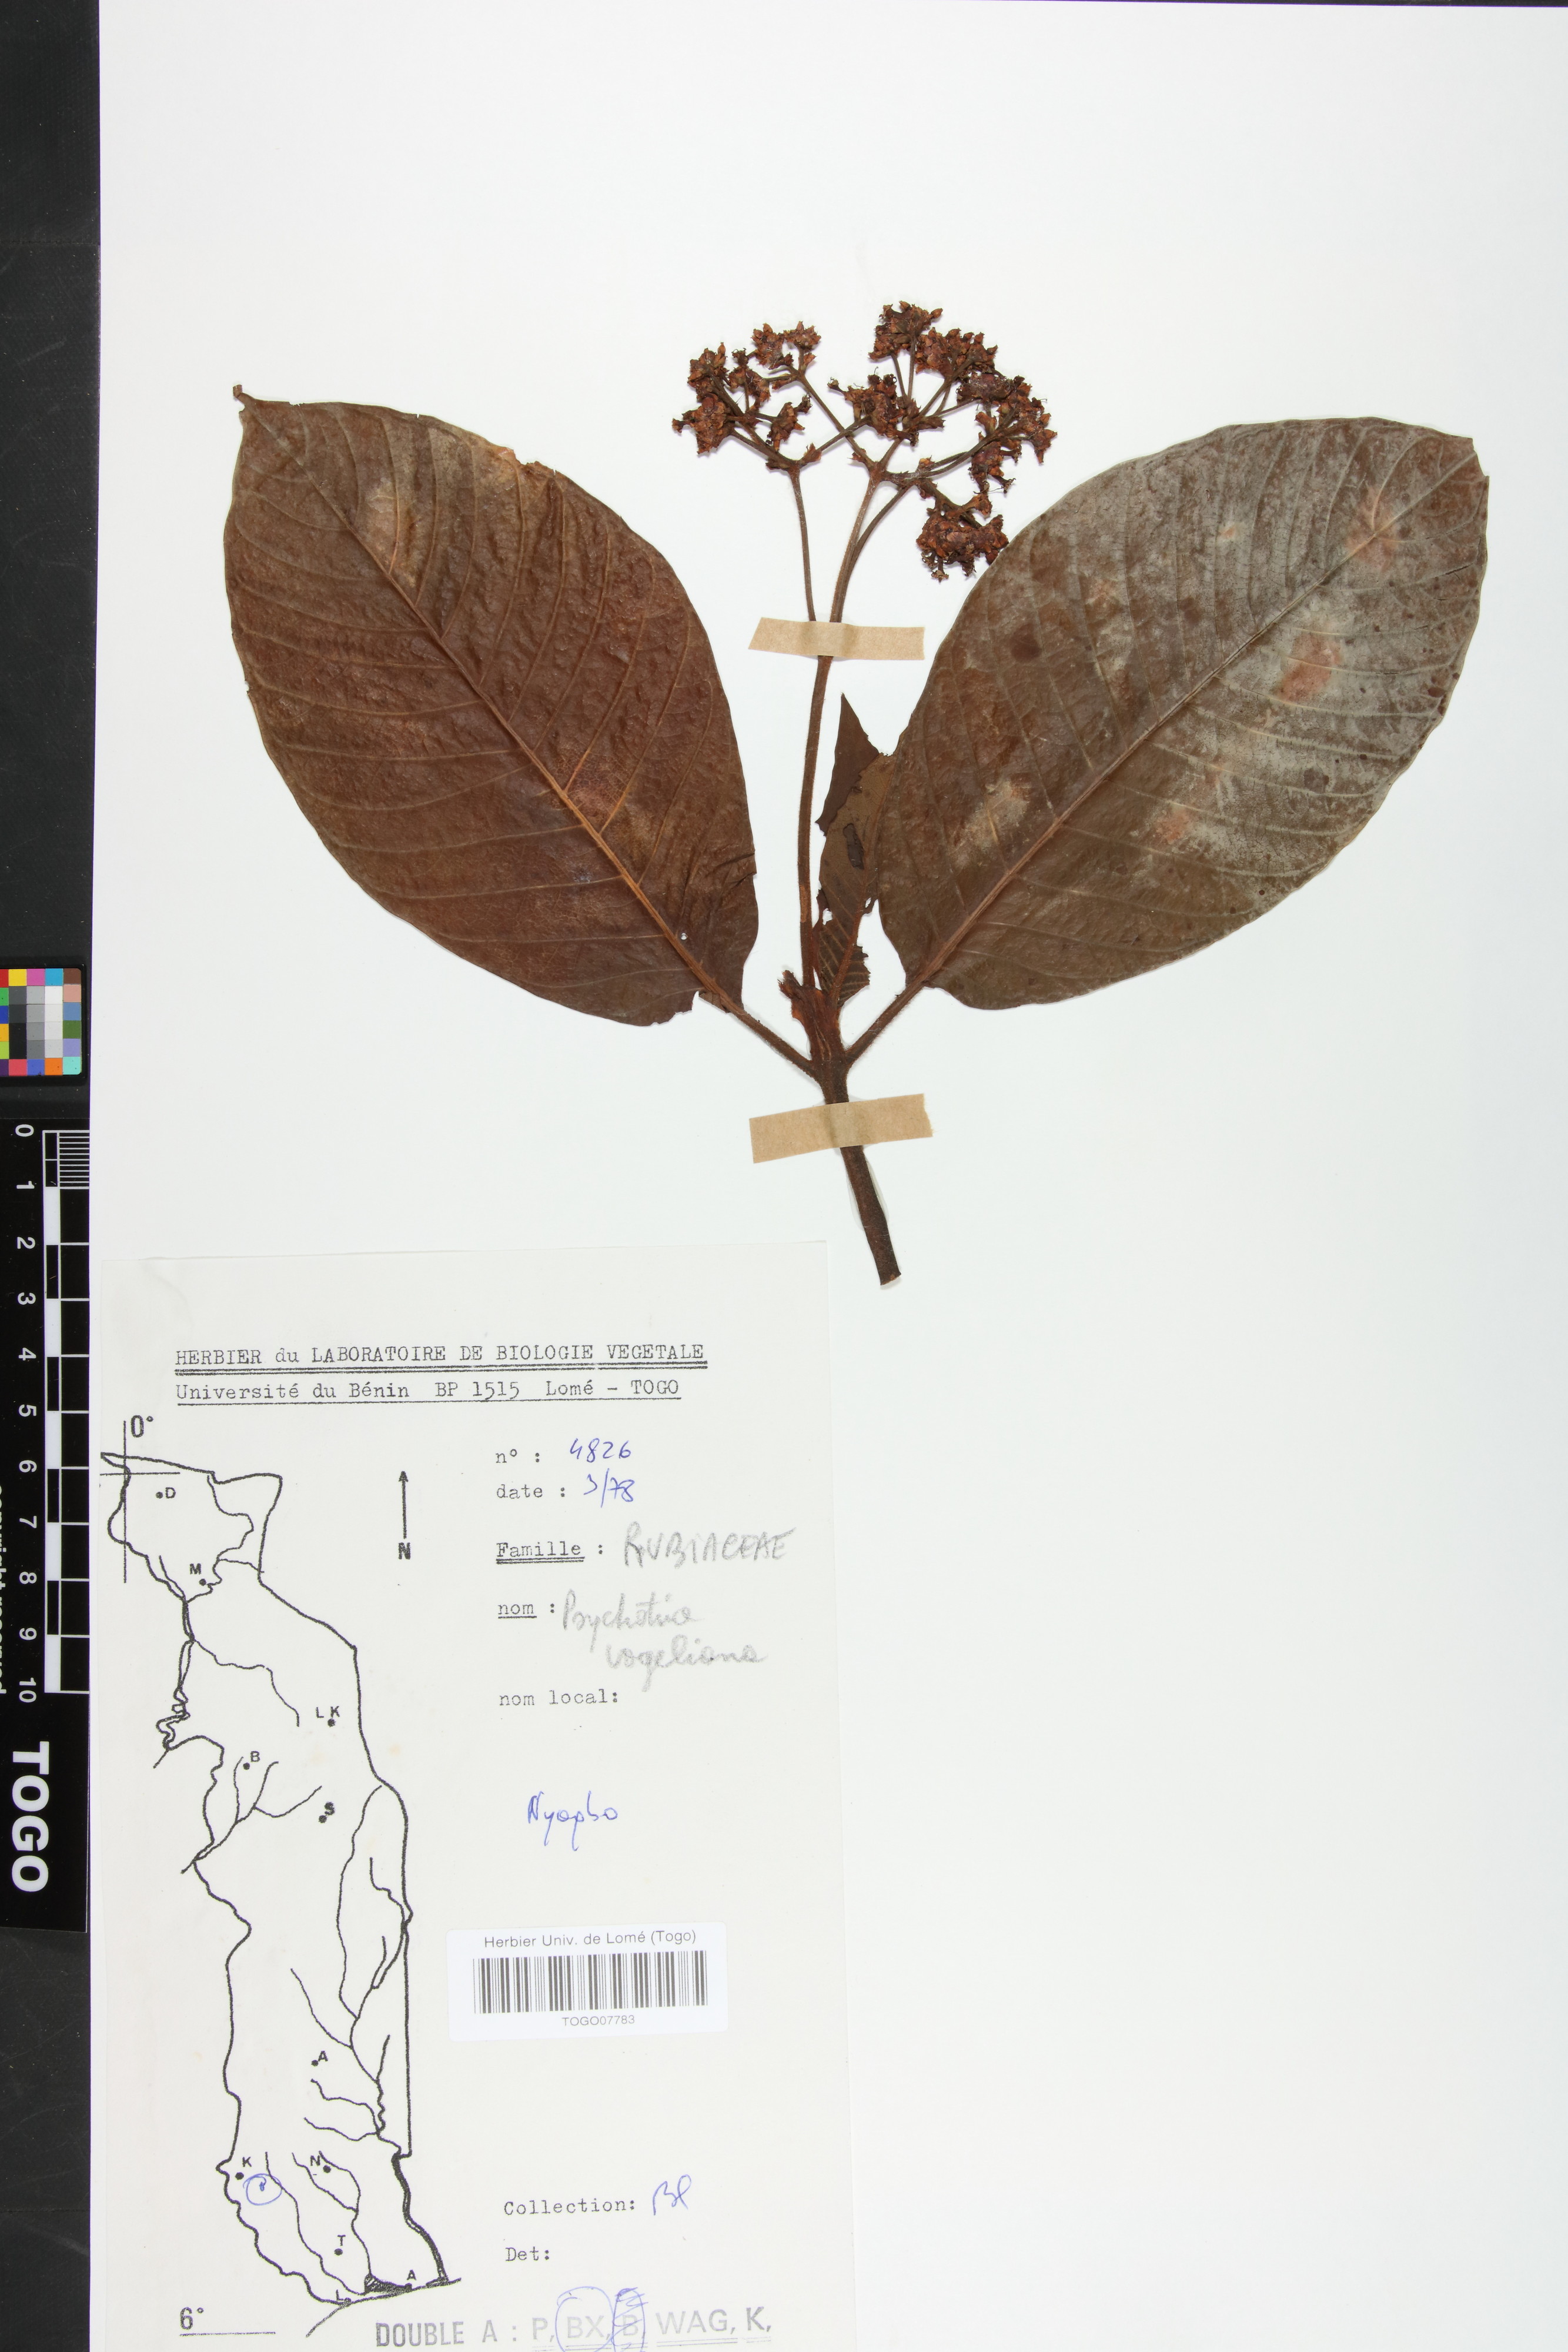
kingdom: Plantae
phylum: Tracheophyta
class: Magnoliopsida
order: Gentianales
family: Rubiaceae
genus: Psychotria
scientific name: Psychotria vogeliana
